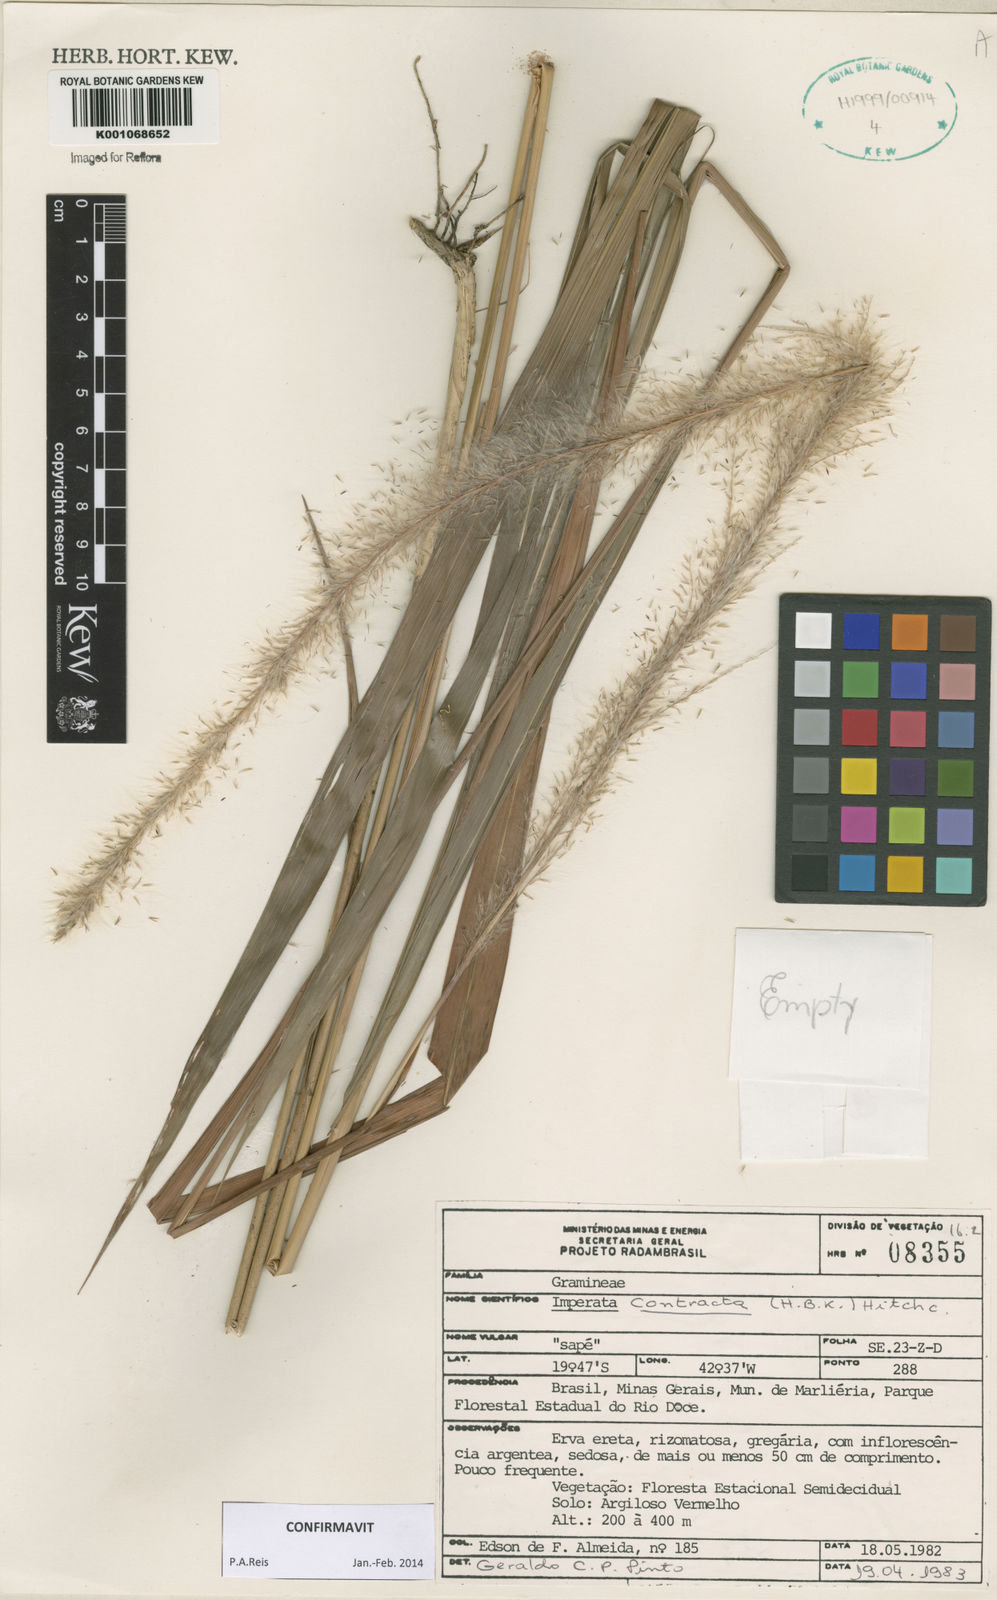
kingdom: Plantae
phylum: Tracheophyta
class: Liliopsida
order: Poales
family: Poaceae
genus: Imperata
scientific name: Imperata contracta
